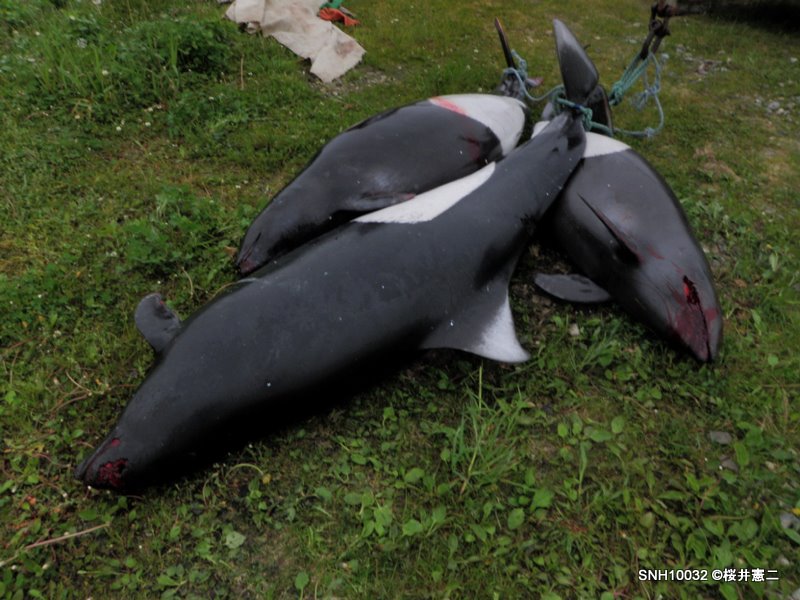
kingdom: Animalia
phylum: Chordata
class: Mammalia
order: Cetacea
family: Phocoenidae
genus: Phocoenoides
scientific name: Phocoenoides dalli
